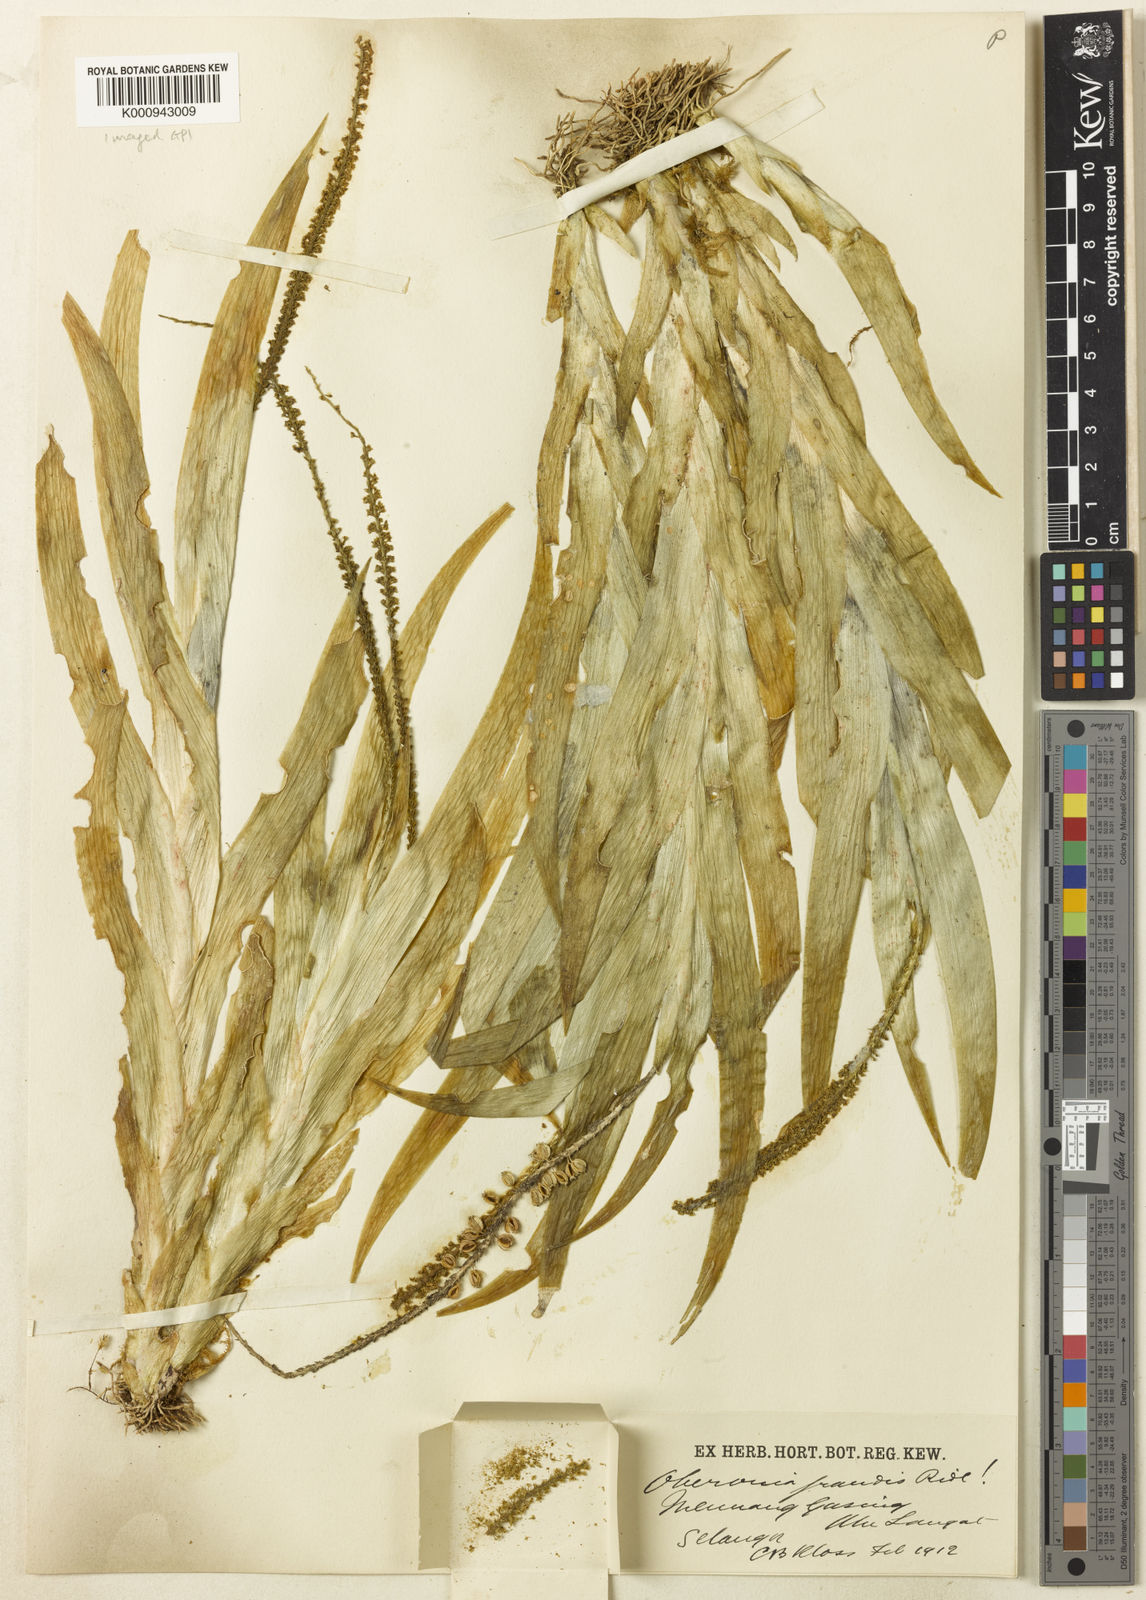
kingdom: Plantae
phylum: Tracheophyta
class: Liliopsida
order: Asparagales
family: Orchidaceae
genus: Oberonia
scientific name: Oberonia grandis
